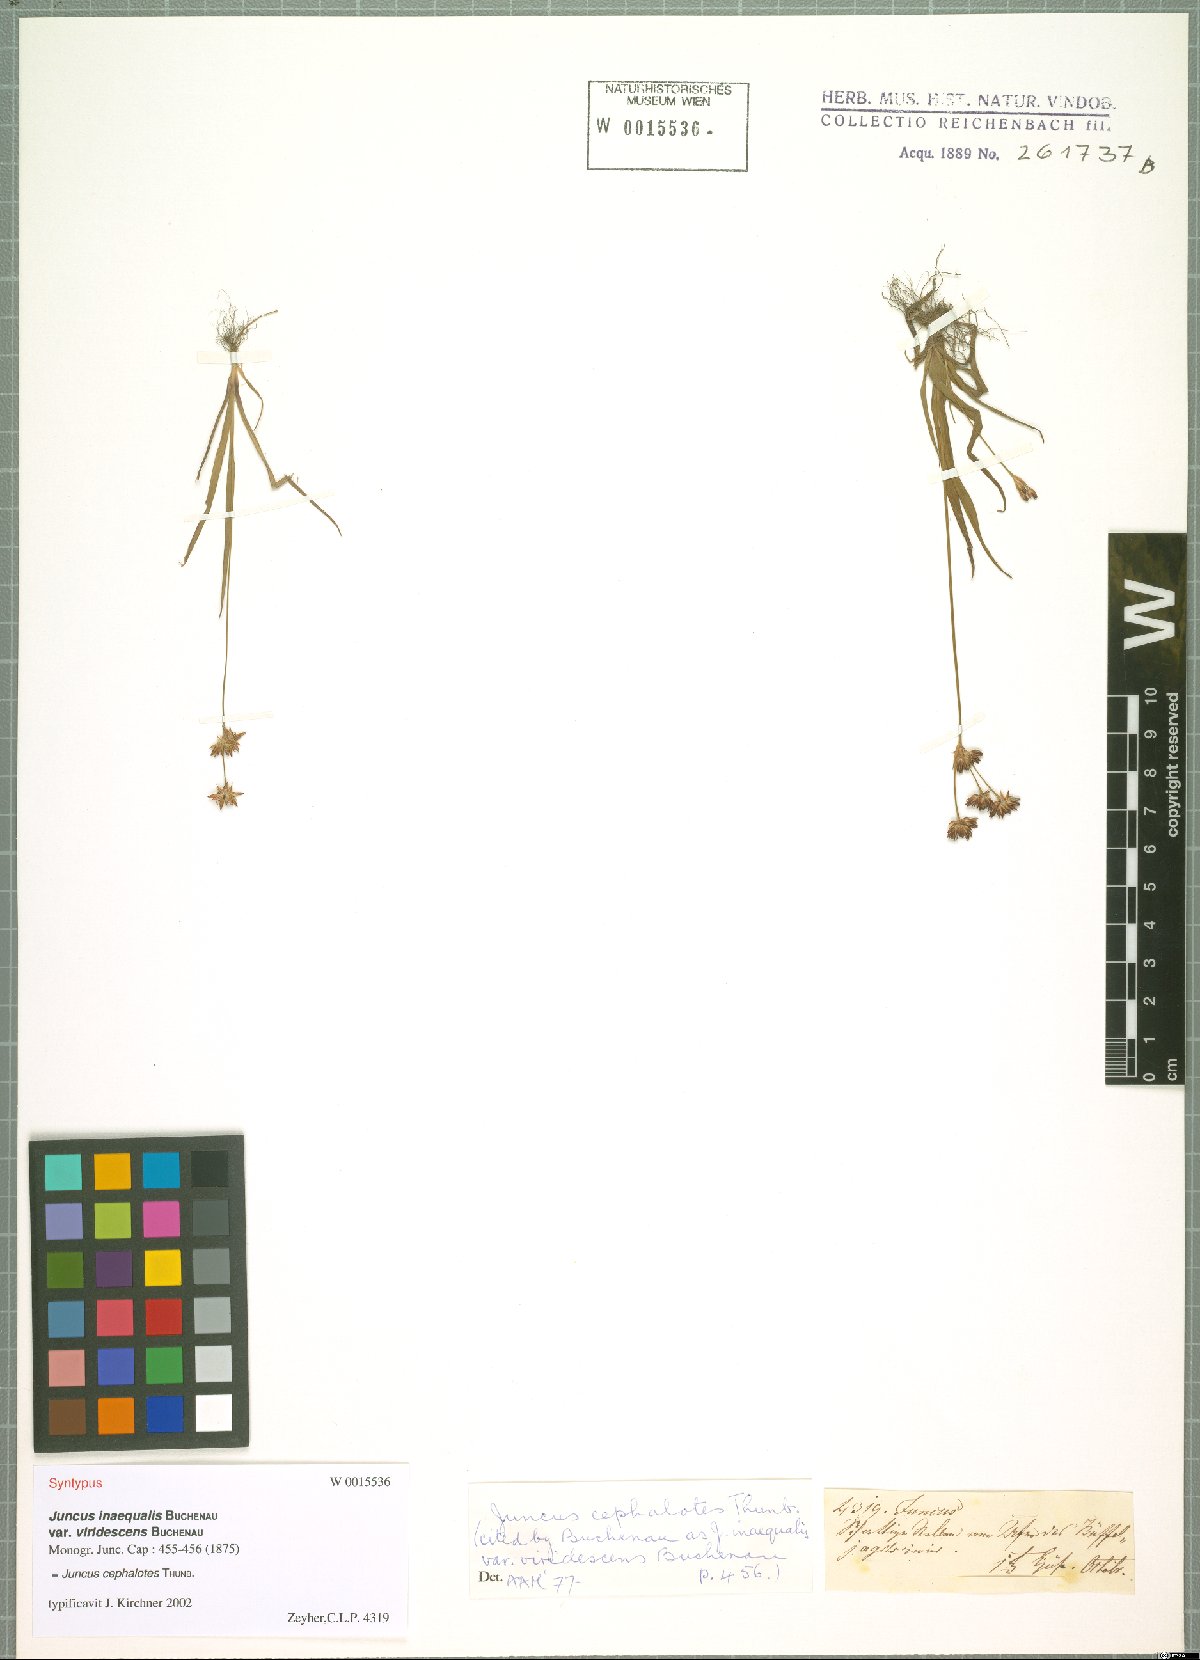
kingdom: Plantae
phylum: Tracheophyta
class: Liliopsida
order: Poales
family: Juncaceae
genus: Juncus
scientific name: Juncus cephalotes
